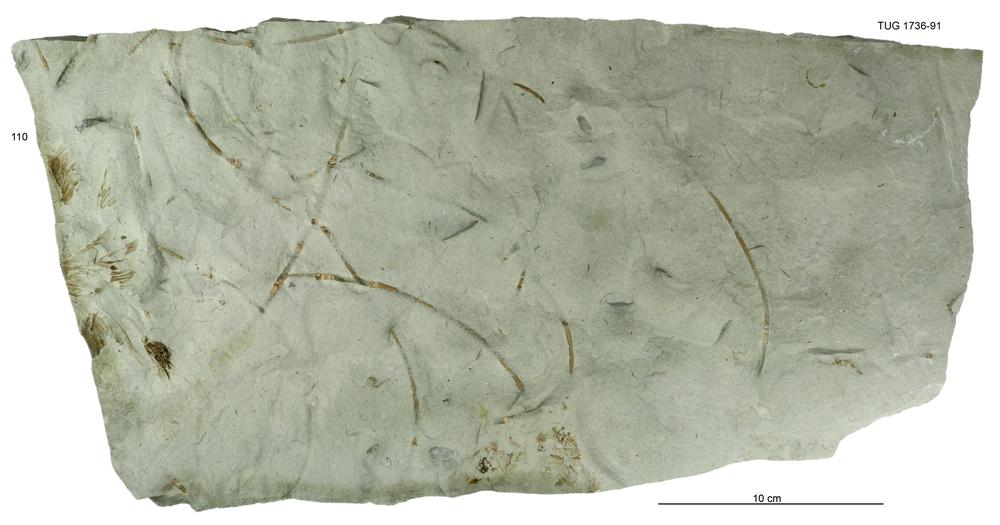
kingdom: Animalia
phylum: Echinodermata
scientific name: Echinodermata
